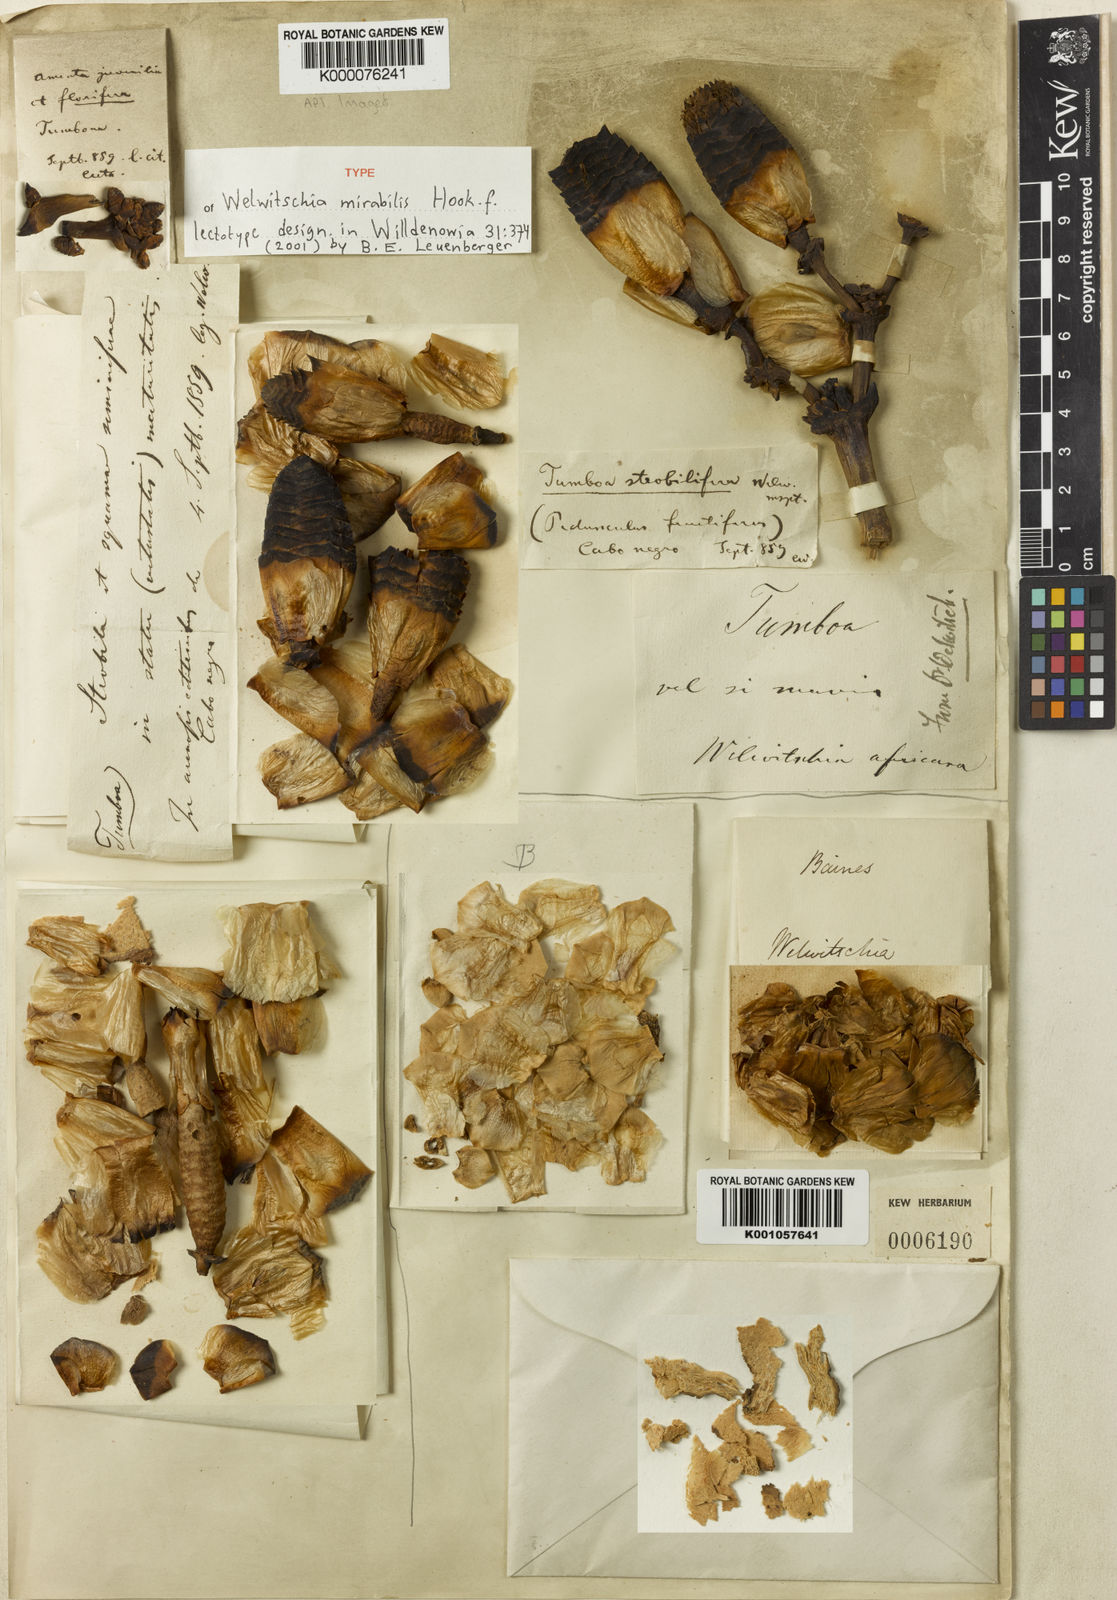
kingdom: Plantae
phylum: Tracheophyta
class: Gnetopsida
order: Welwitschiales
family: Welwitschiaceae
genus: Welwitschia
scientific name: Welwitschia mirabilis
